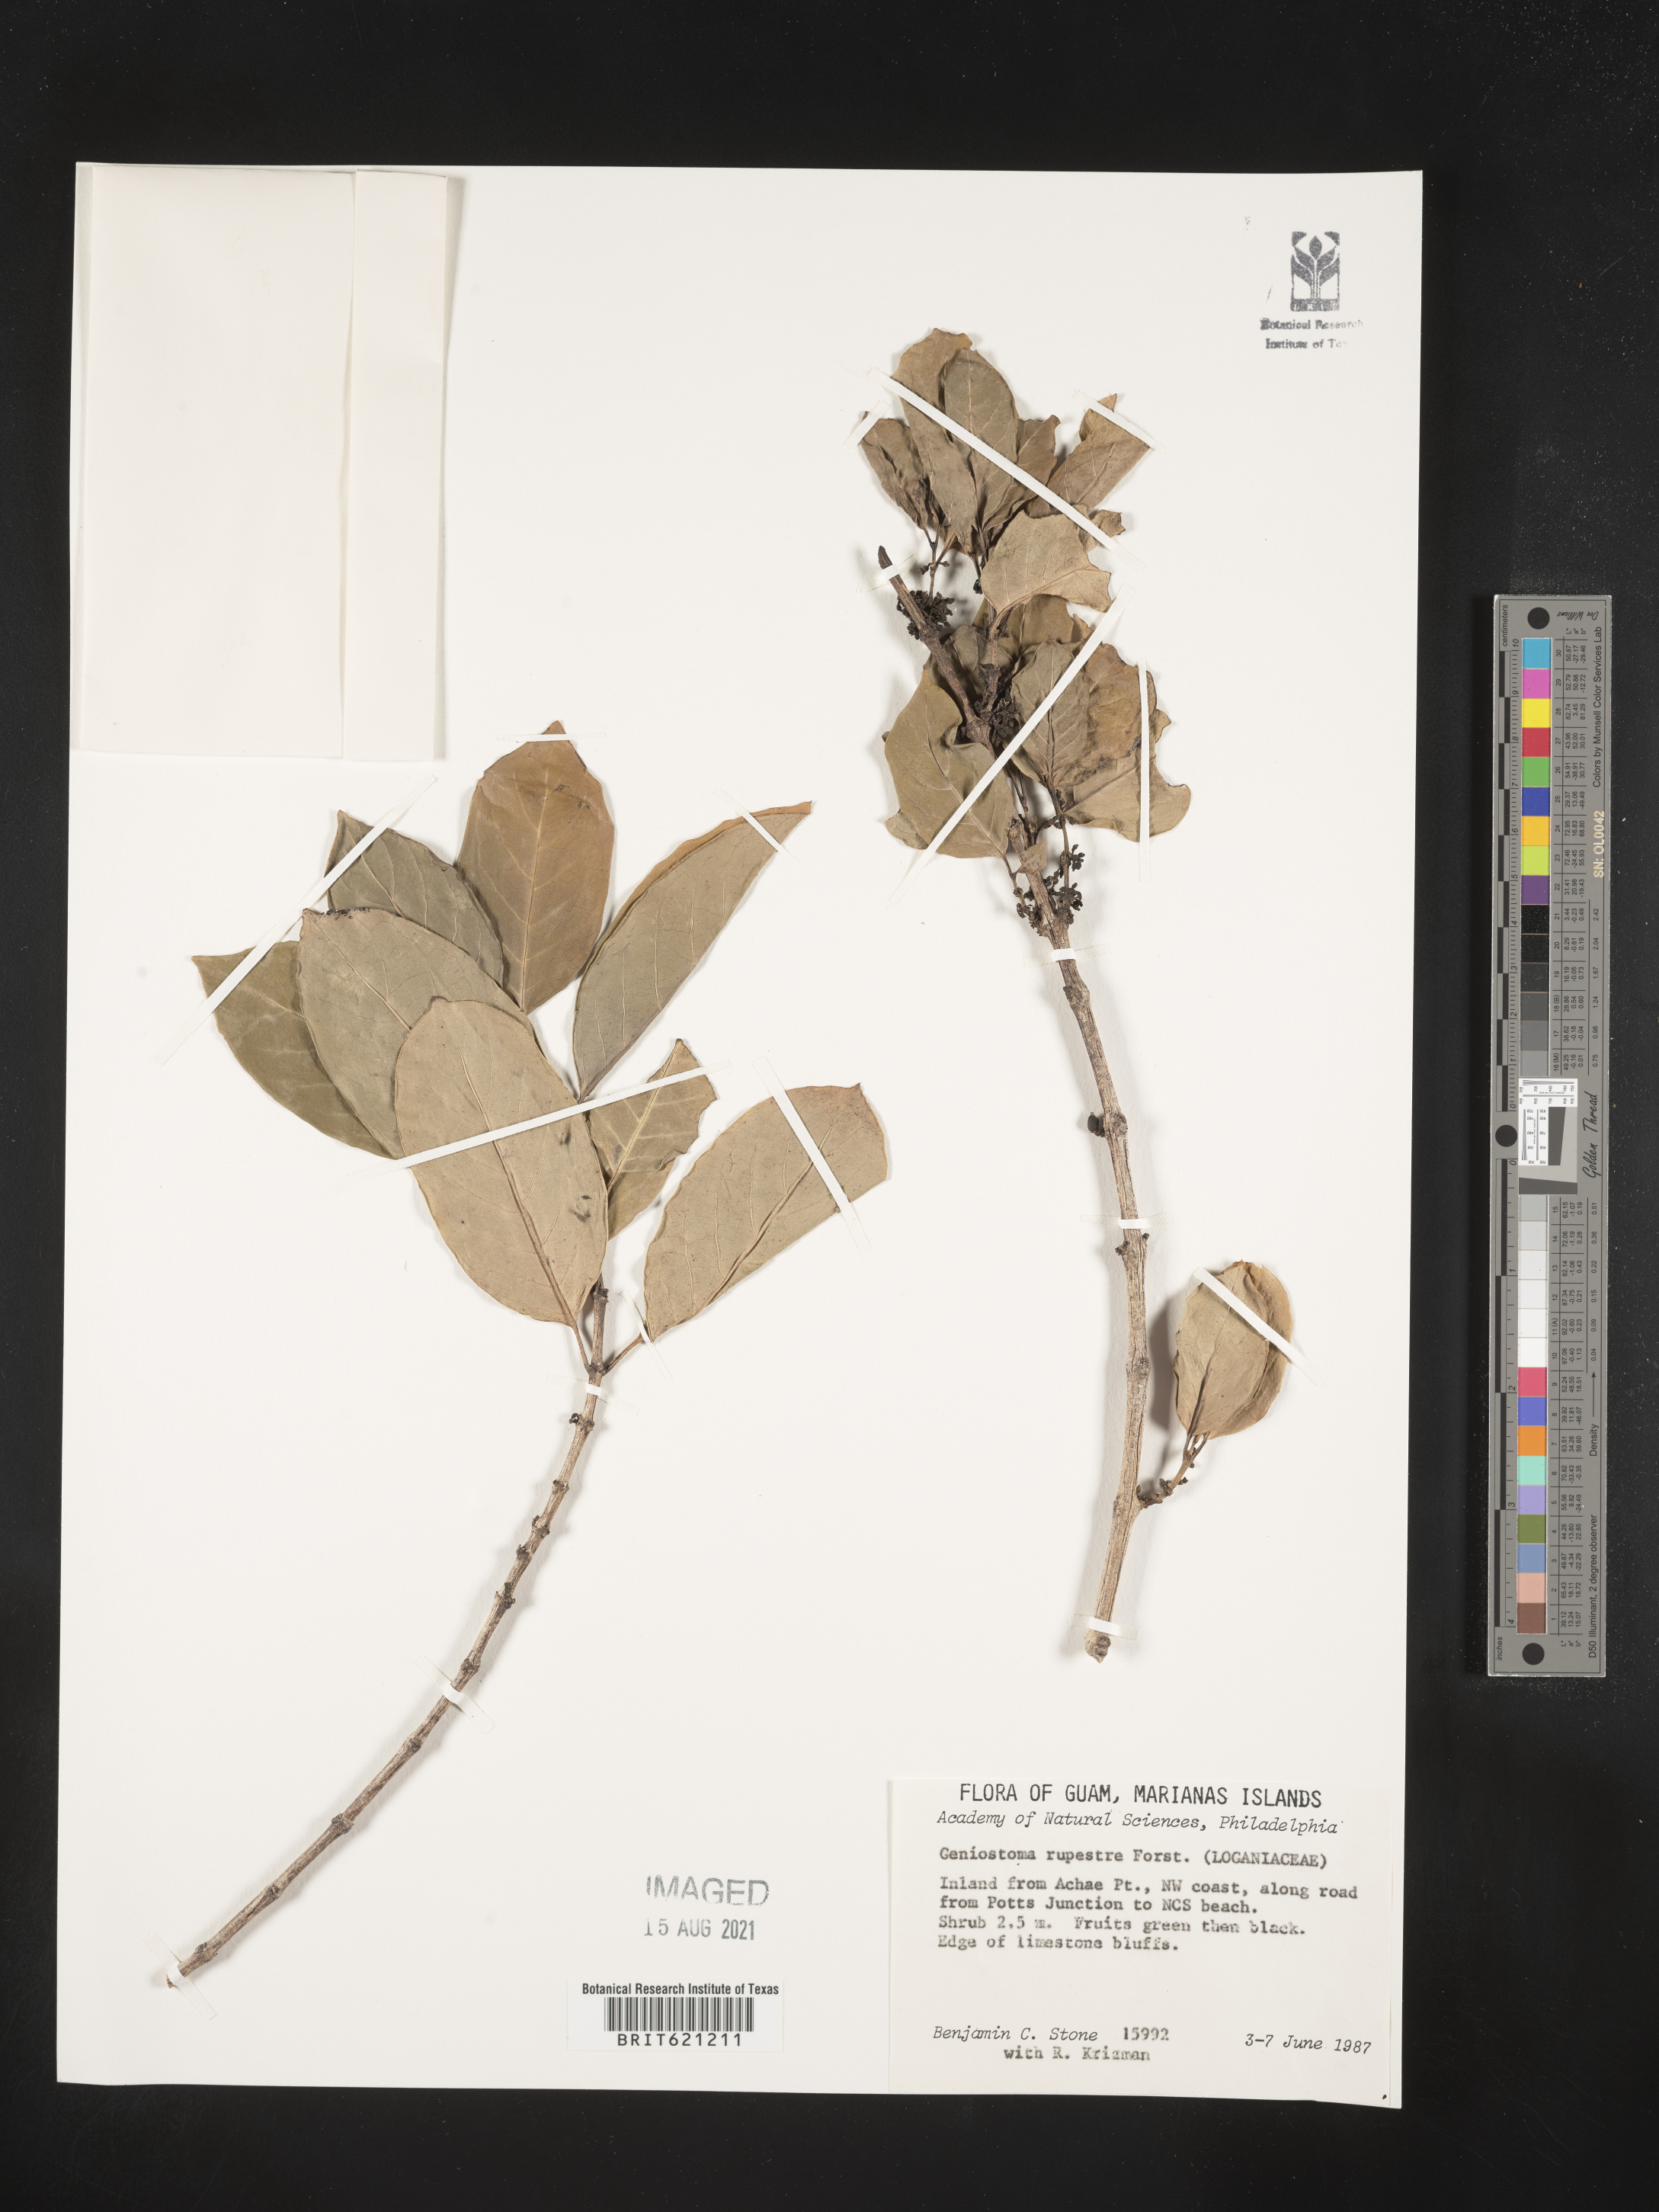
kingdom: Plantae
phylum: Tracheophyta
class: Magnoliopsida
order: Gentianales
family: Loganiaceae
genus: Geniostoma
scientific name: Geniostoma ligustrifolium
